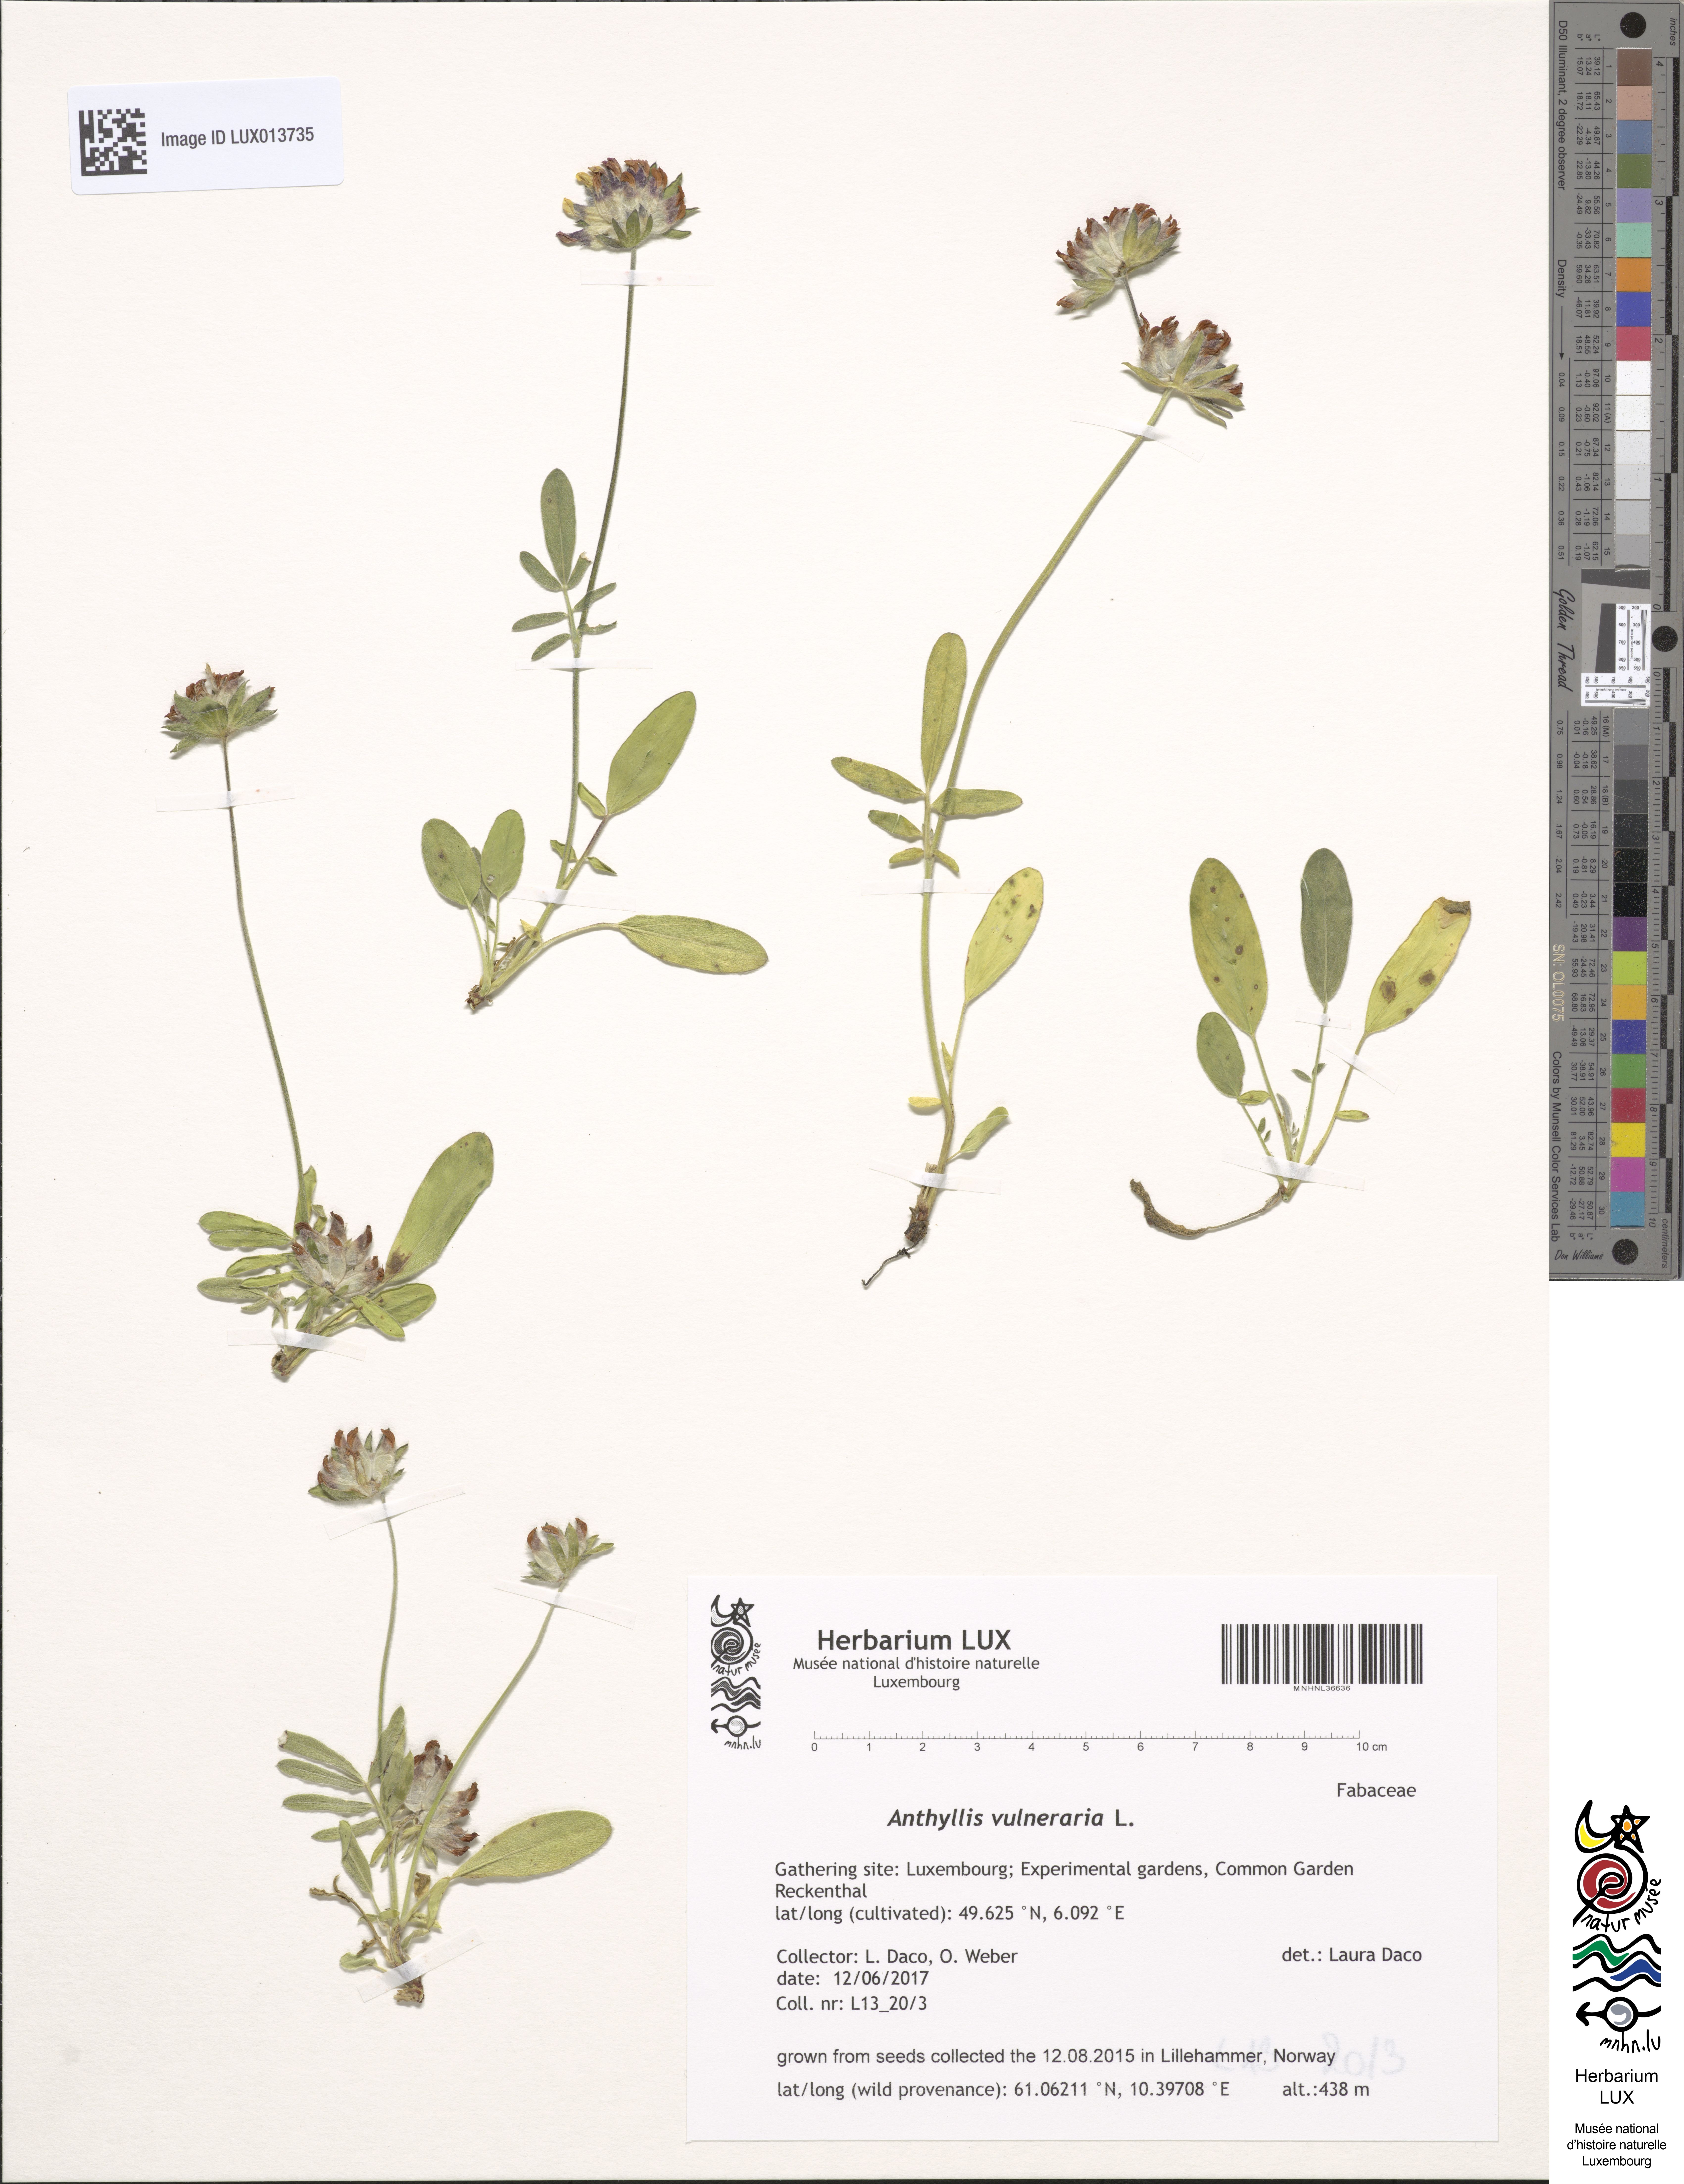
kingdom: Plantae
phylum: Tracheophyta
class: Magnoliopsida
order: Fabales
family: Fabaceae
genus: Anthyllis
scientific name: Anthyllis vulneraria
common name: Kidney vetch
